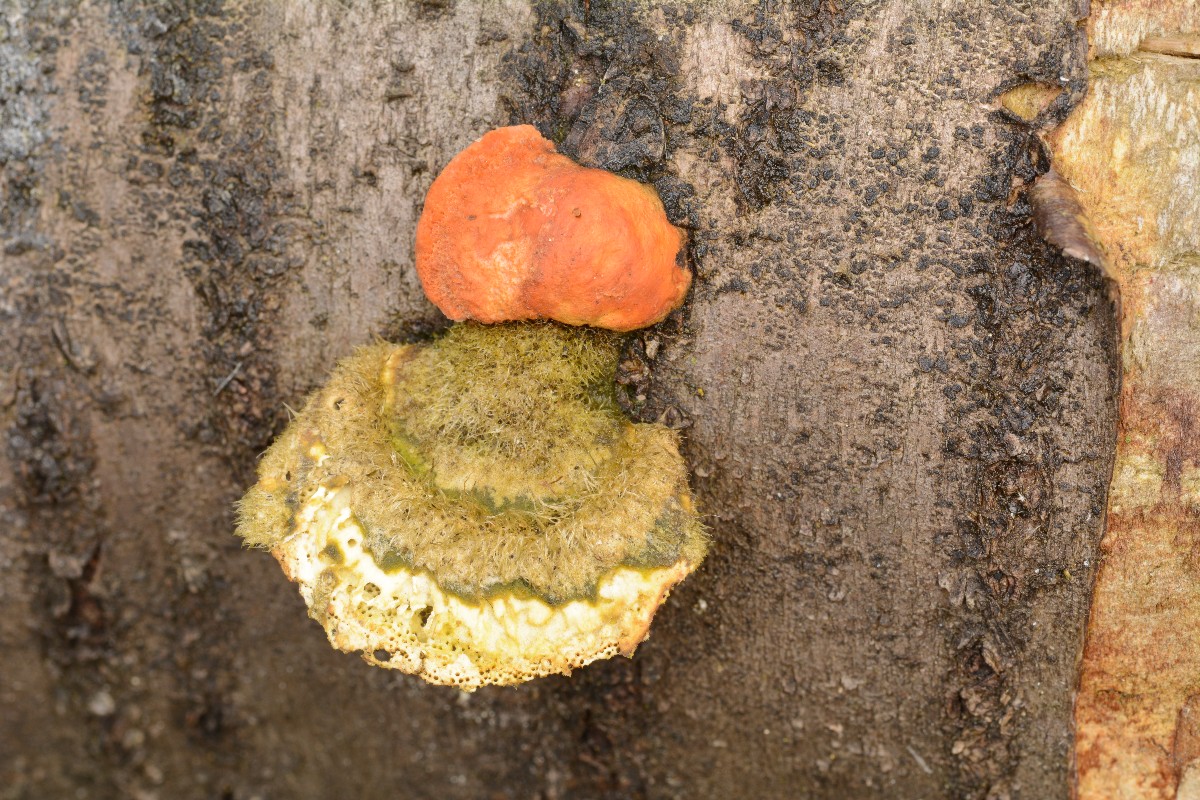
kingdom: Fungi
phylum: Basidiomycota
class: Agaricomycetes
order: Polyporales
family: Polyporaceae
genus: Trametes
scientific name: Trametes cinnabarina
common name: cinnoberporesvamp
